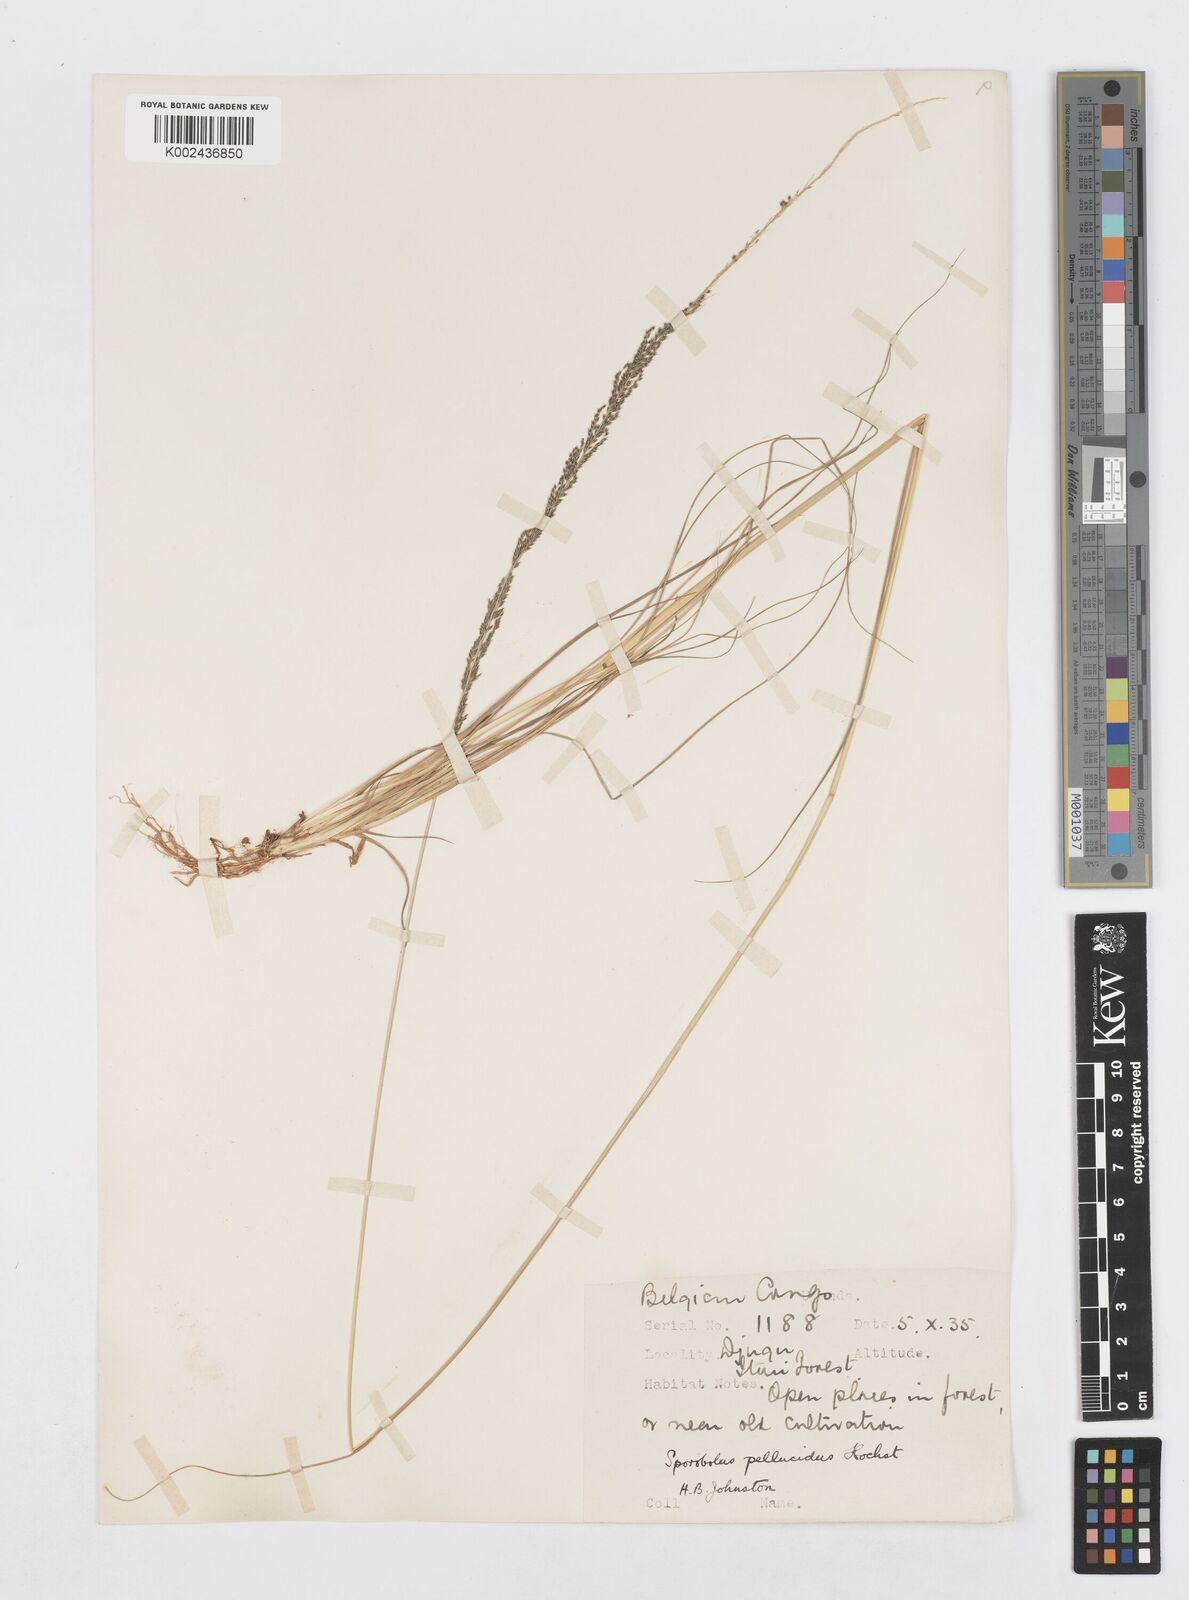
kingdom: Plantae
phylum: Tracheophyta
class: Liliopsida
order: Poales
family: Poaceae
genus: Sporobolus
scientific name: Sporobolus natalensis
